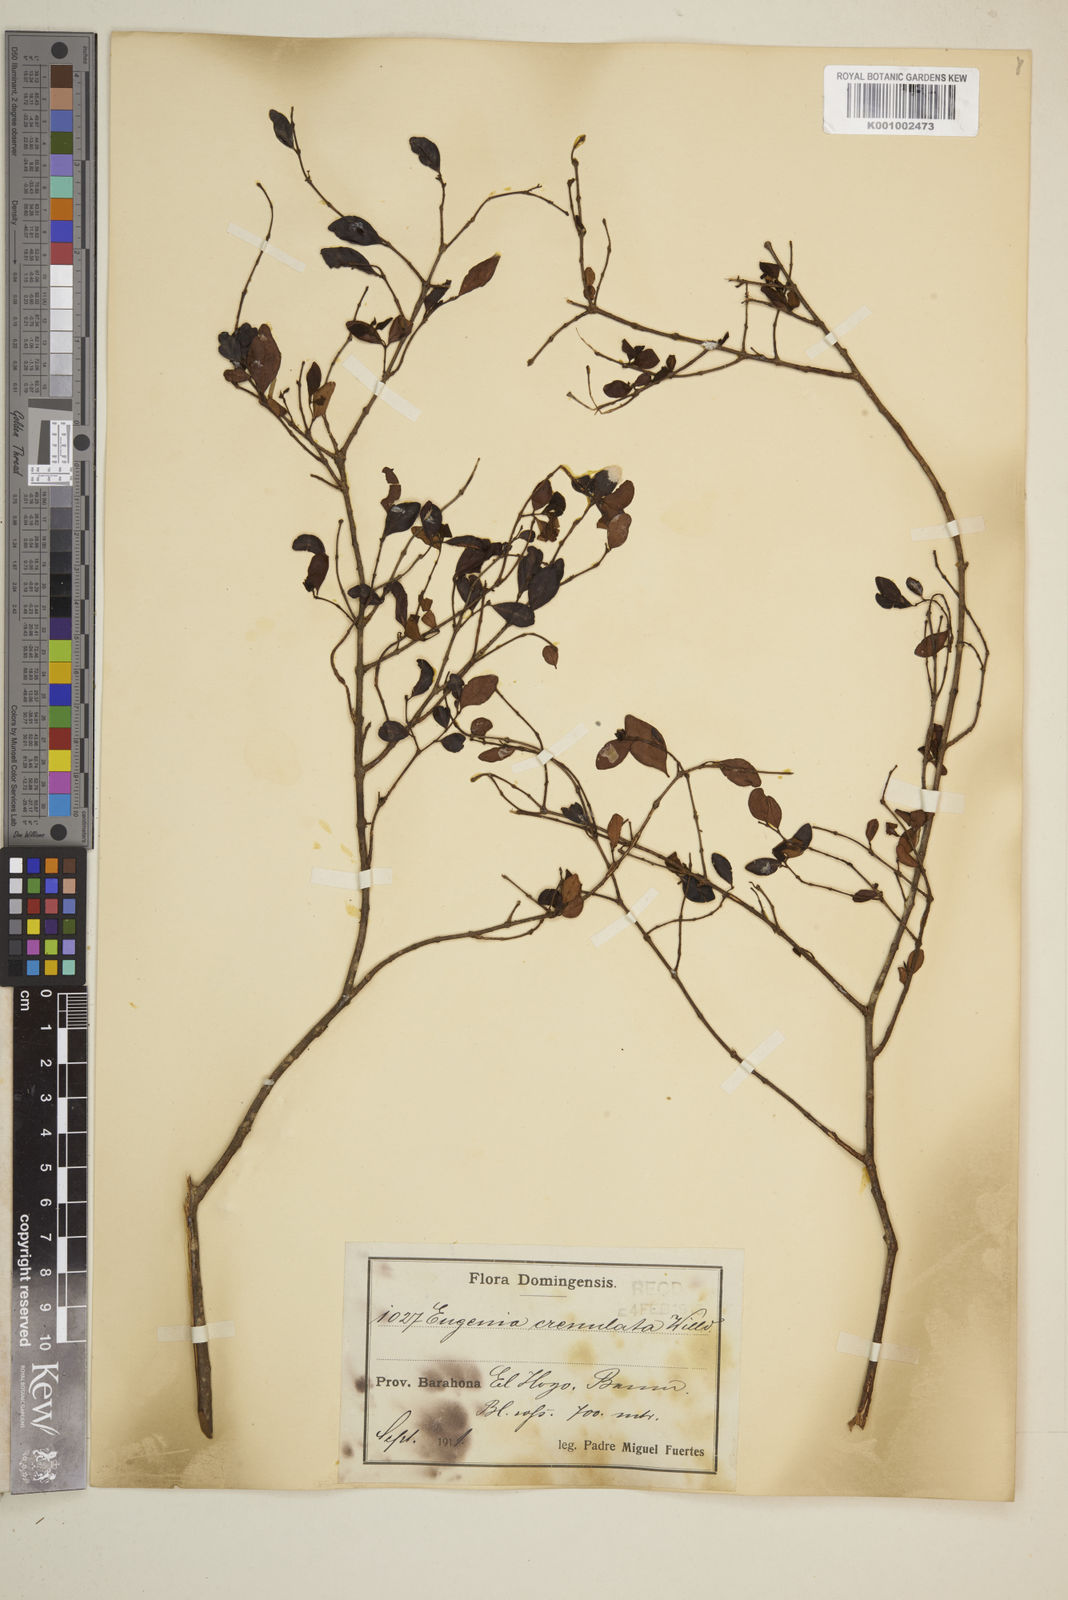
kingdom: Plantae
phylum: Tracheophyta
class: Magnoliopsida
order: Myrtales
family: Myrtaceae
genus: Eugenia
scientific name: Eugenia crenulata
